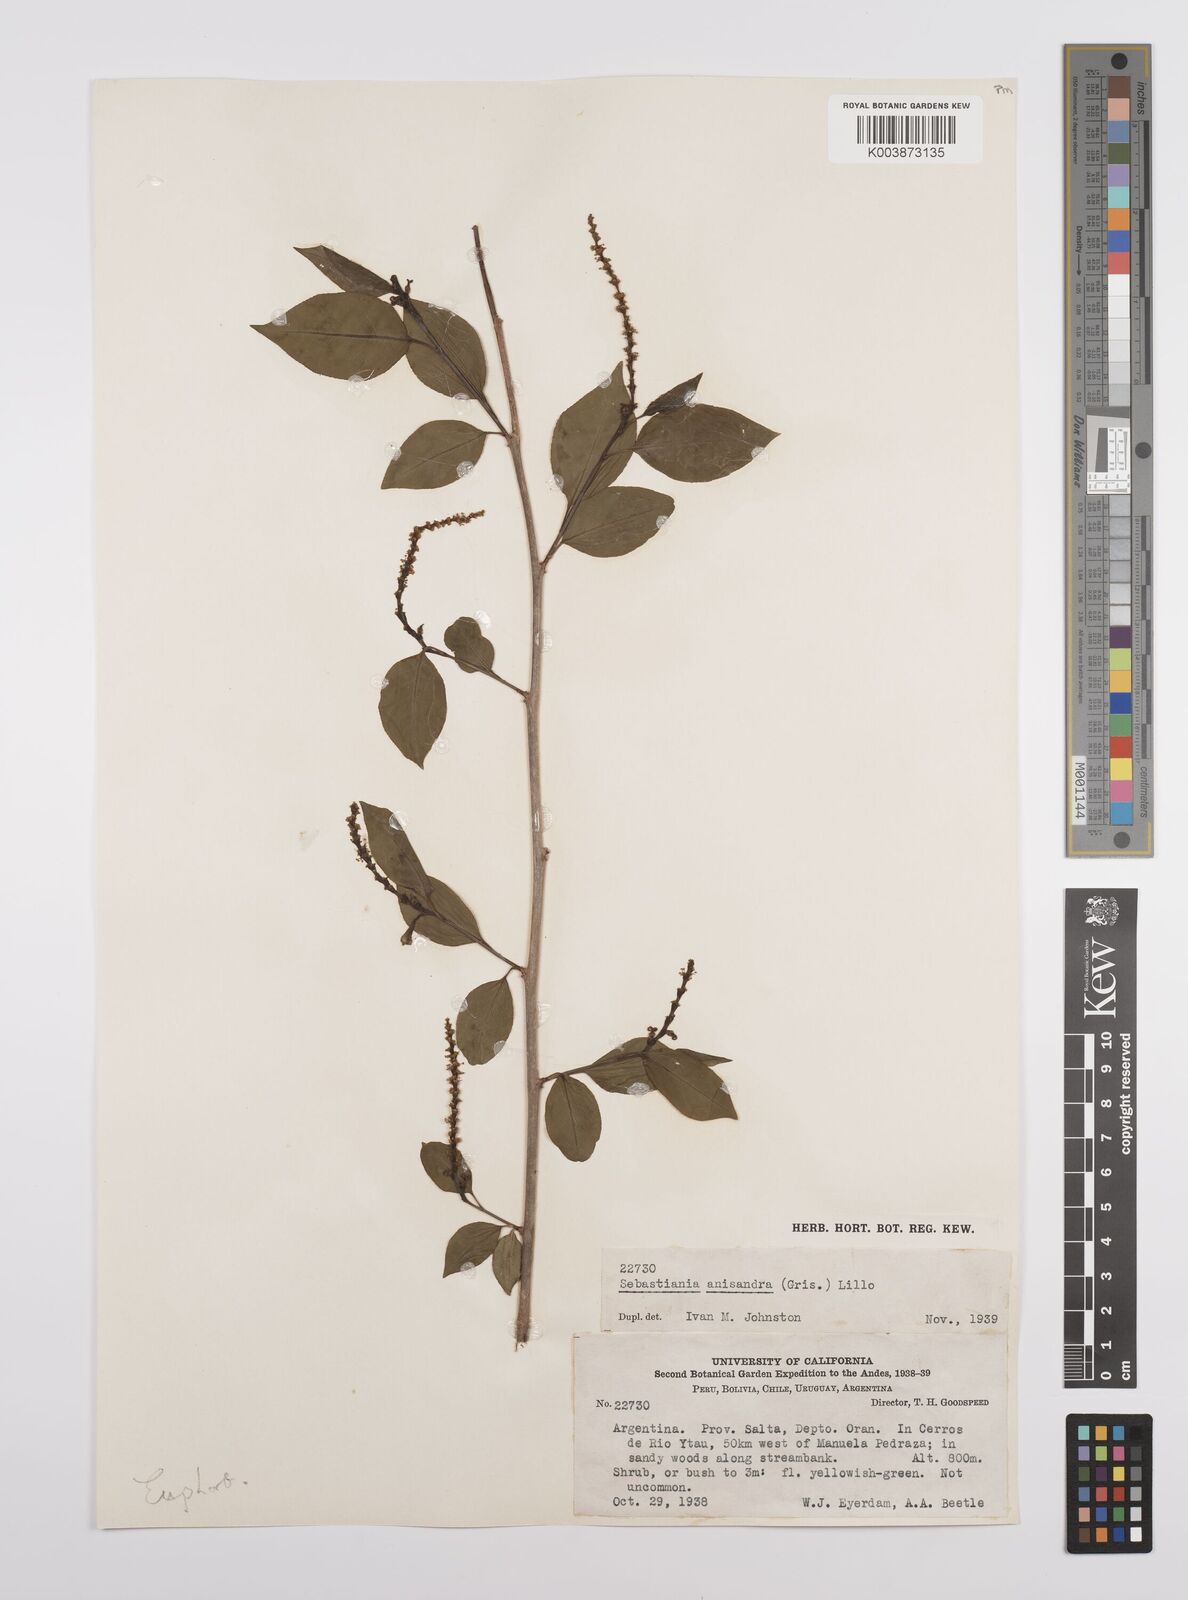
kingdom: Plantae
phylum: Tracheophyta
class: Magnoliopsida
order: Malpighiales
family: Euphorbiaceae
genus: Sebastiania
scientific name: Sebastiania brasiliensis
